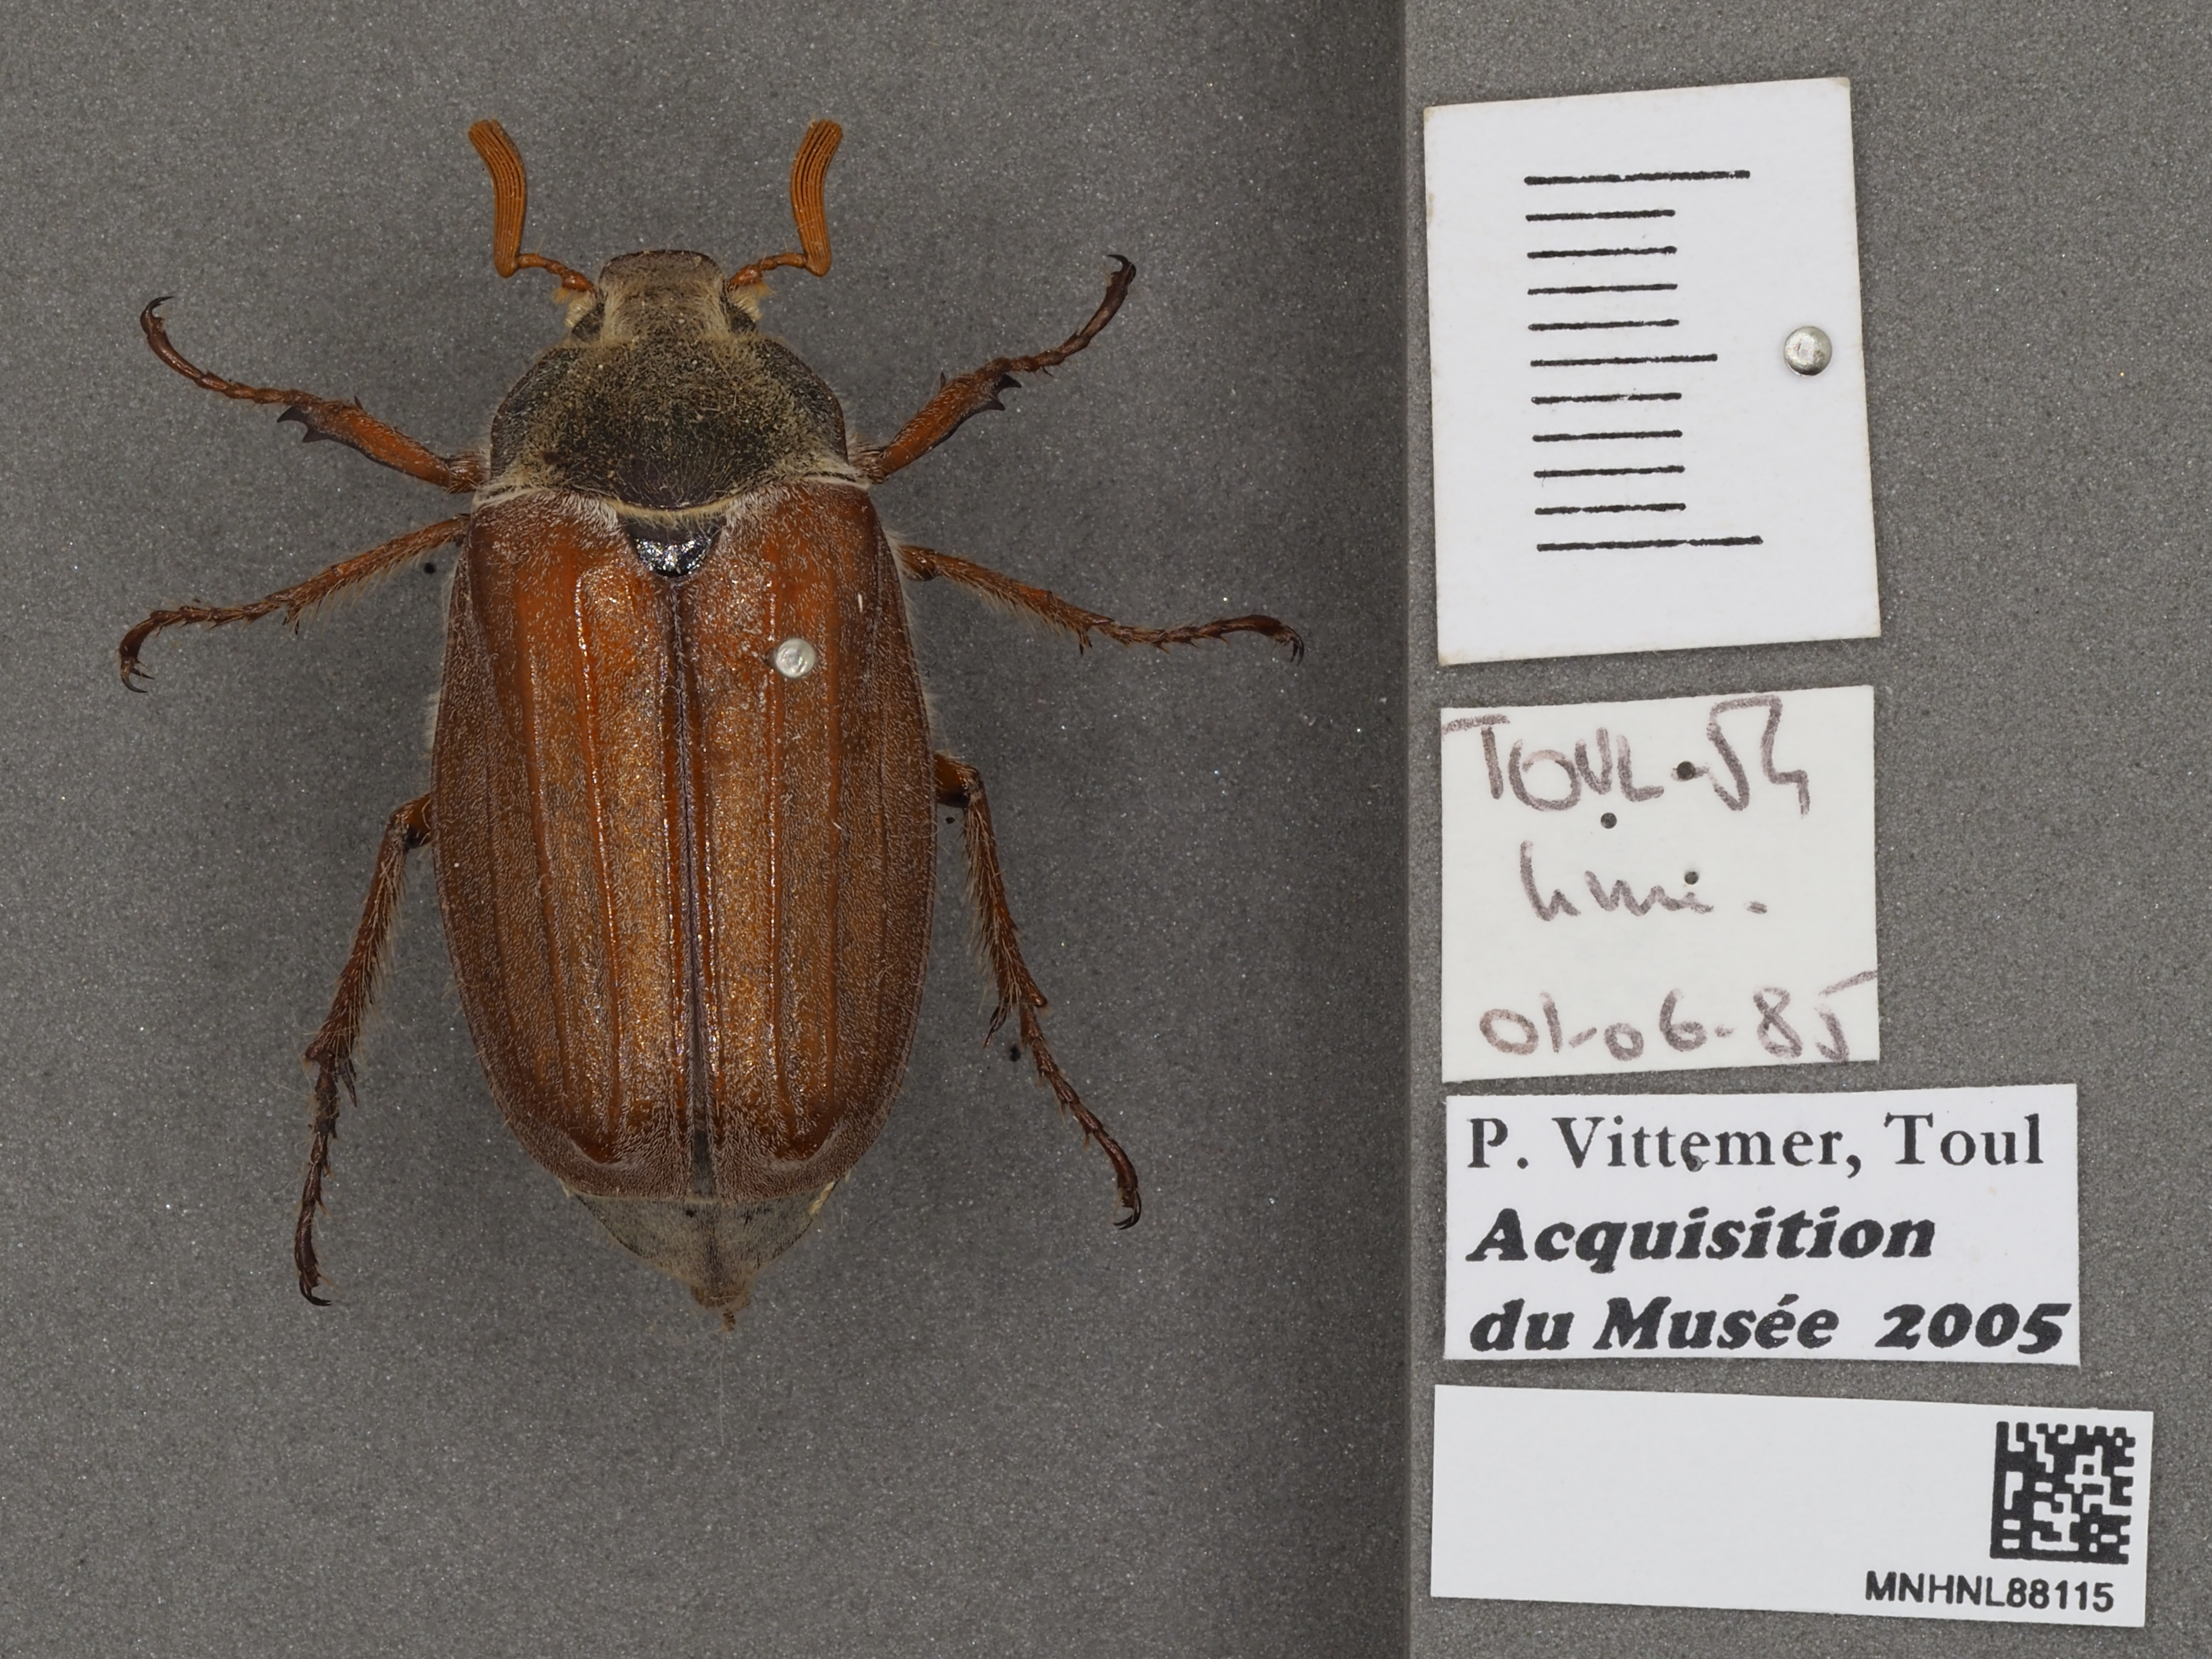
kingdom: Animalia
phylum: Arthropoda
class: Insecta
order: Coleoptera
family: Scarabaeidae
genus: Melolontha
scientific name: Melolontha melolontha
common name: Cockchafer maybeetle
